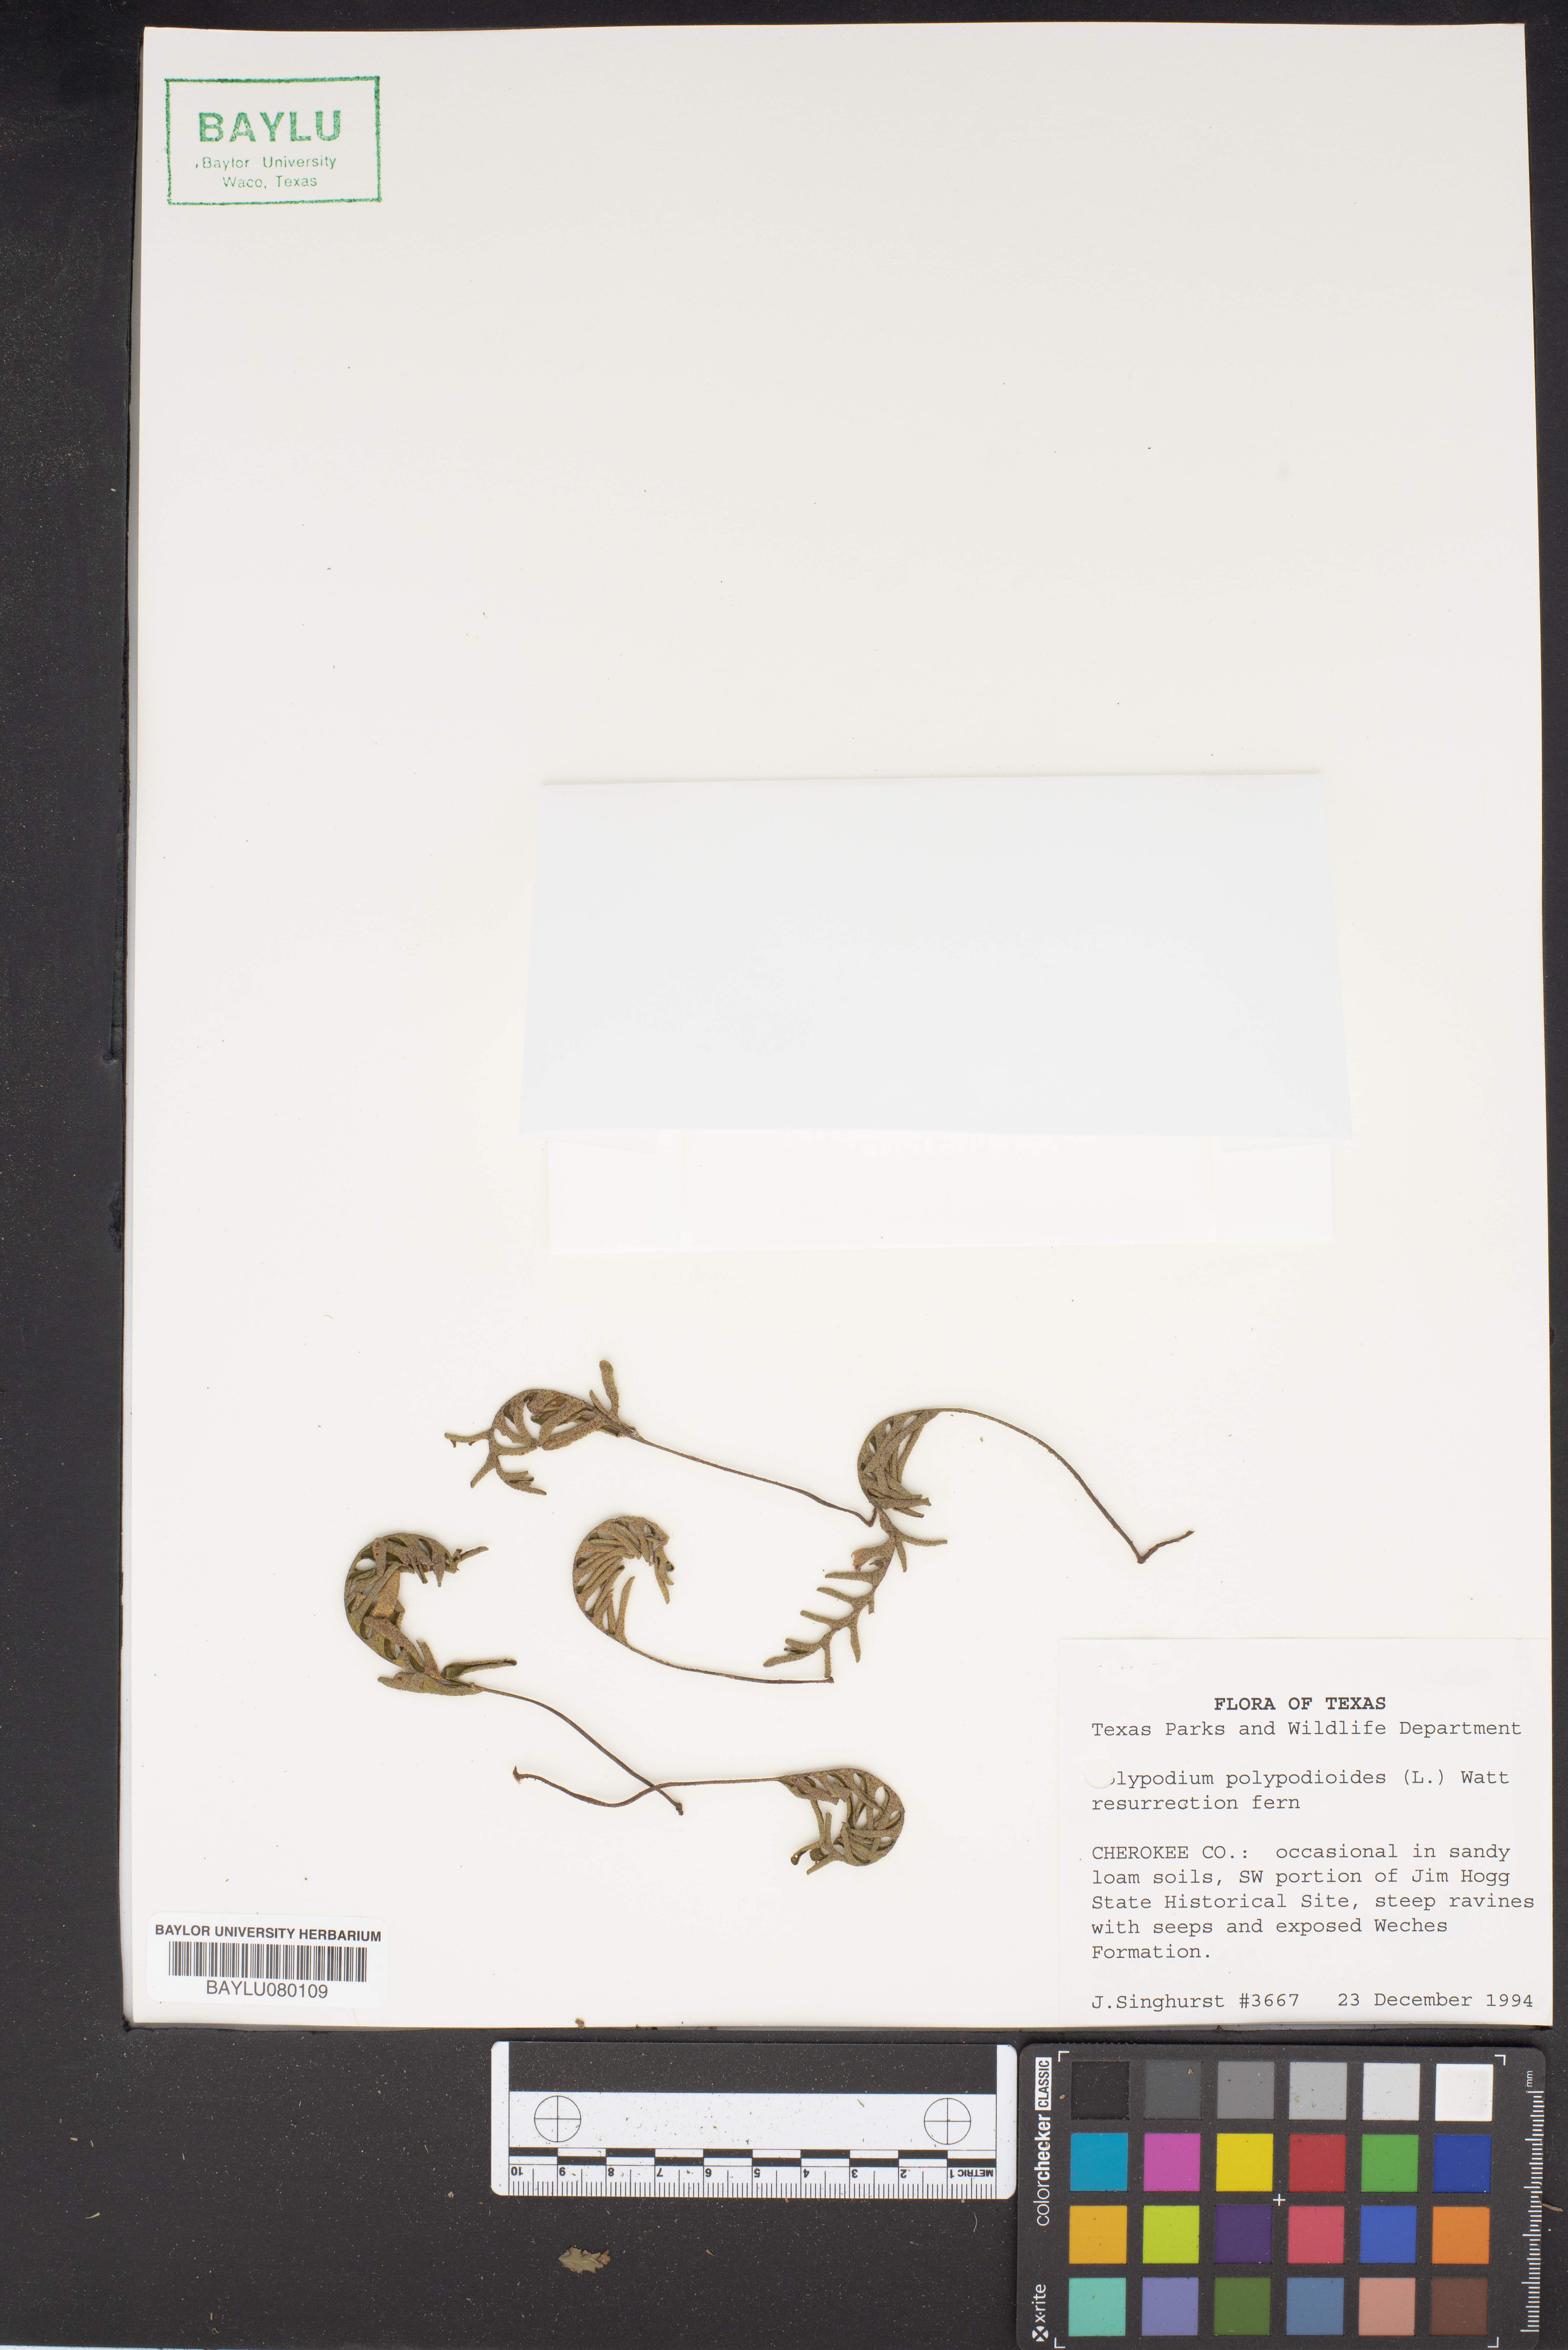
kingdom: Plantae
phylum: Tracheophyta
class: Polypodiopsida
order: Polypodiales
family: Polypodiaceae
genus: Pleopeltis
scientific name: Pleopeltis polypodioides
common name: Resurrection fern
